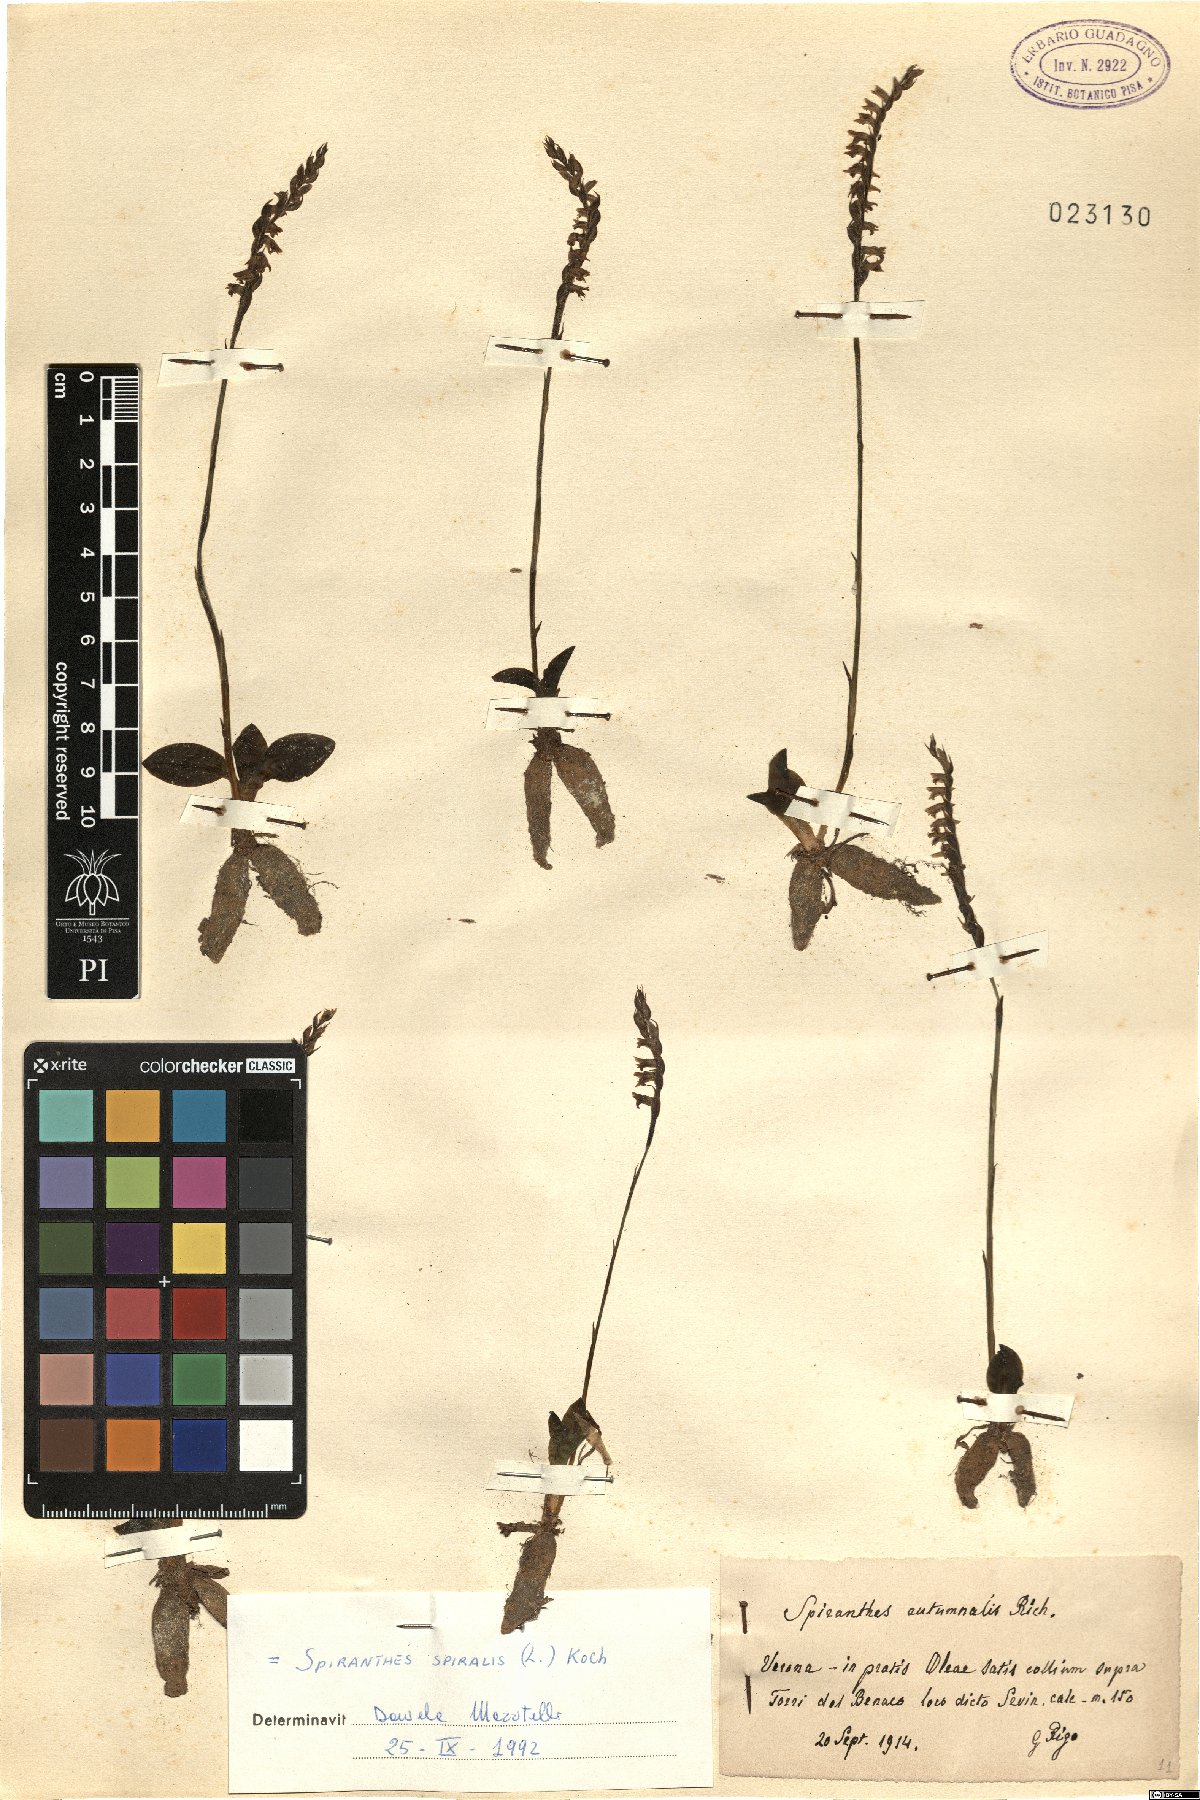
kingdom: Plantae
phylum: Tracheophyta
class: Liliopsida
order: Asparagales
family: Orchidaceae
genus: Spiranthes
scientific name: Spiranthes spiralis
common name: Autumn lady's-tresses
